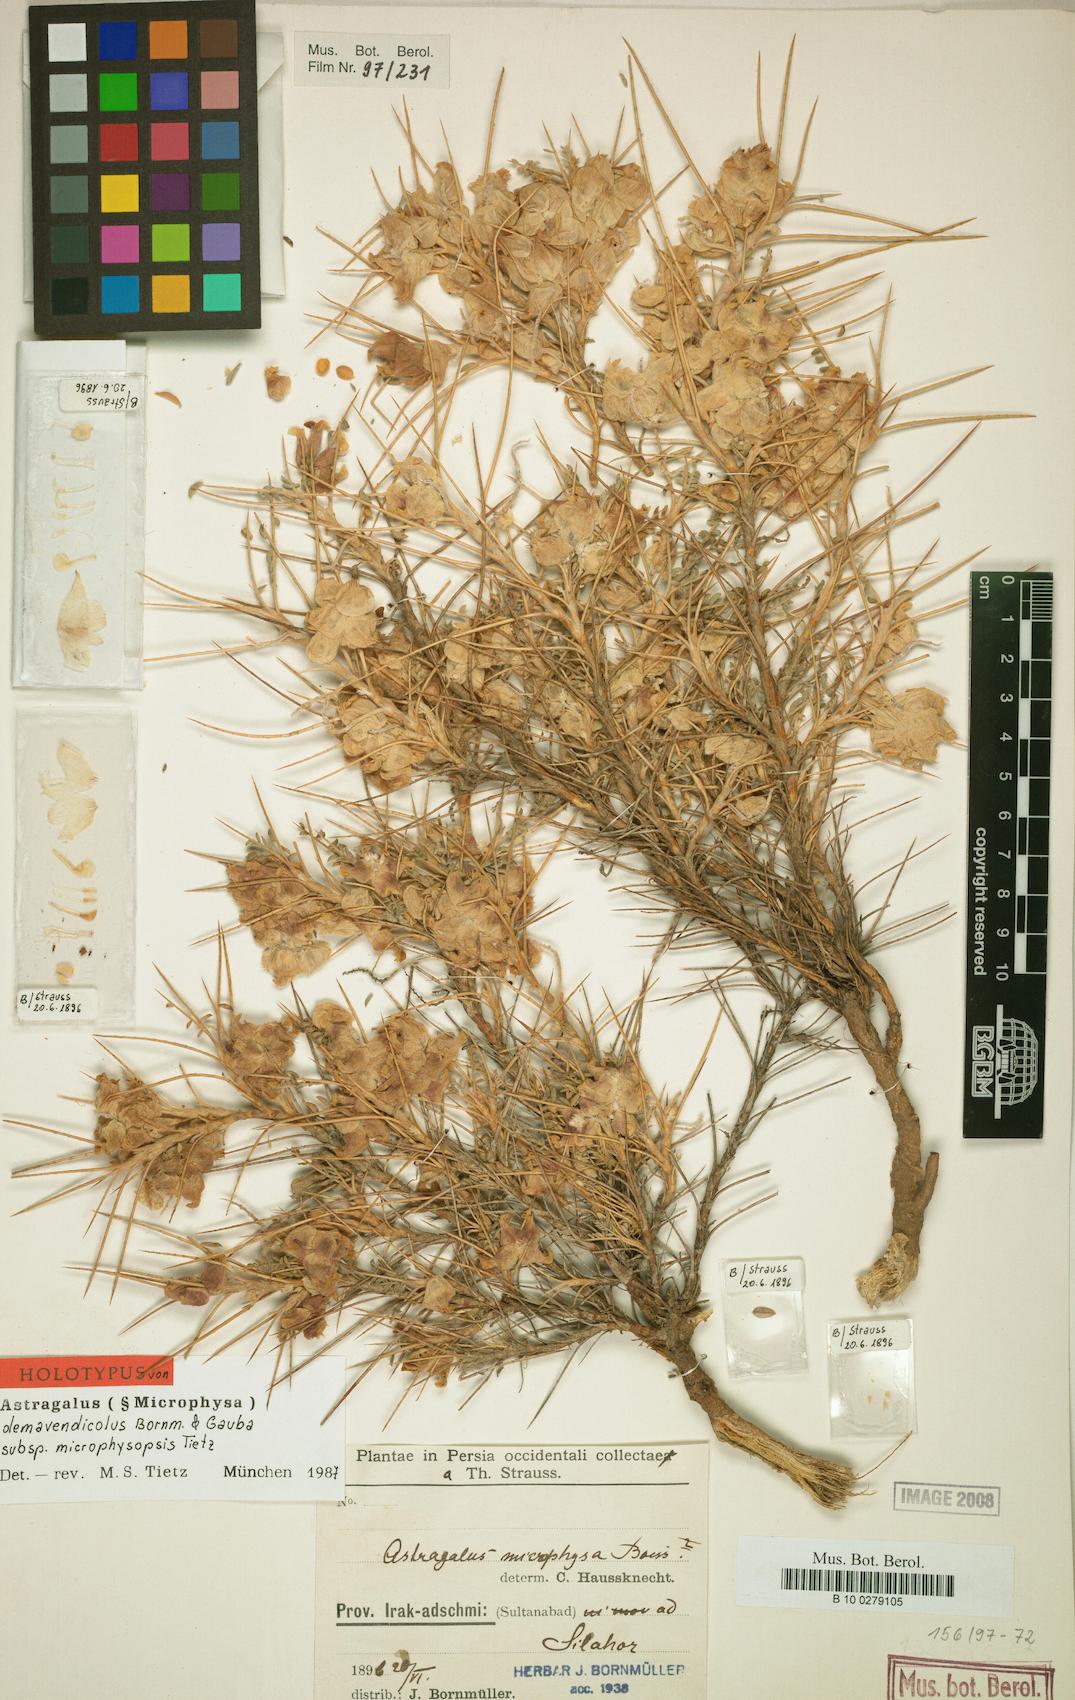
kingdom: Plantae
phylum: Tracheophyta
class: Magnoliopsida
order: Fabales
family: Fabaceae
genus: Astragalus
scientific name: Astragalus microphysopsis
